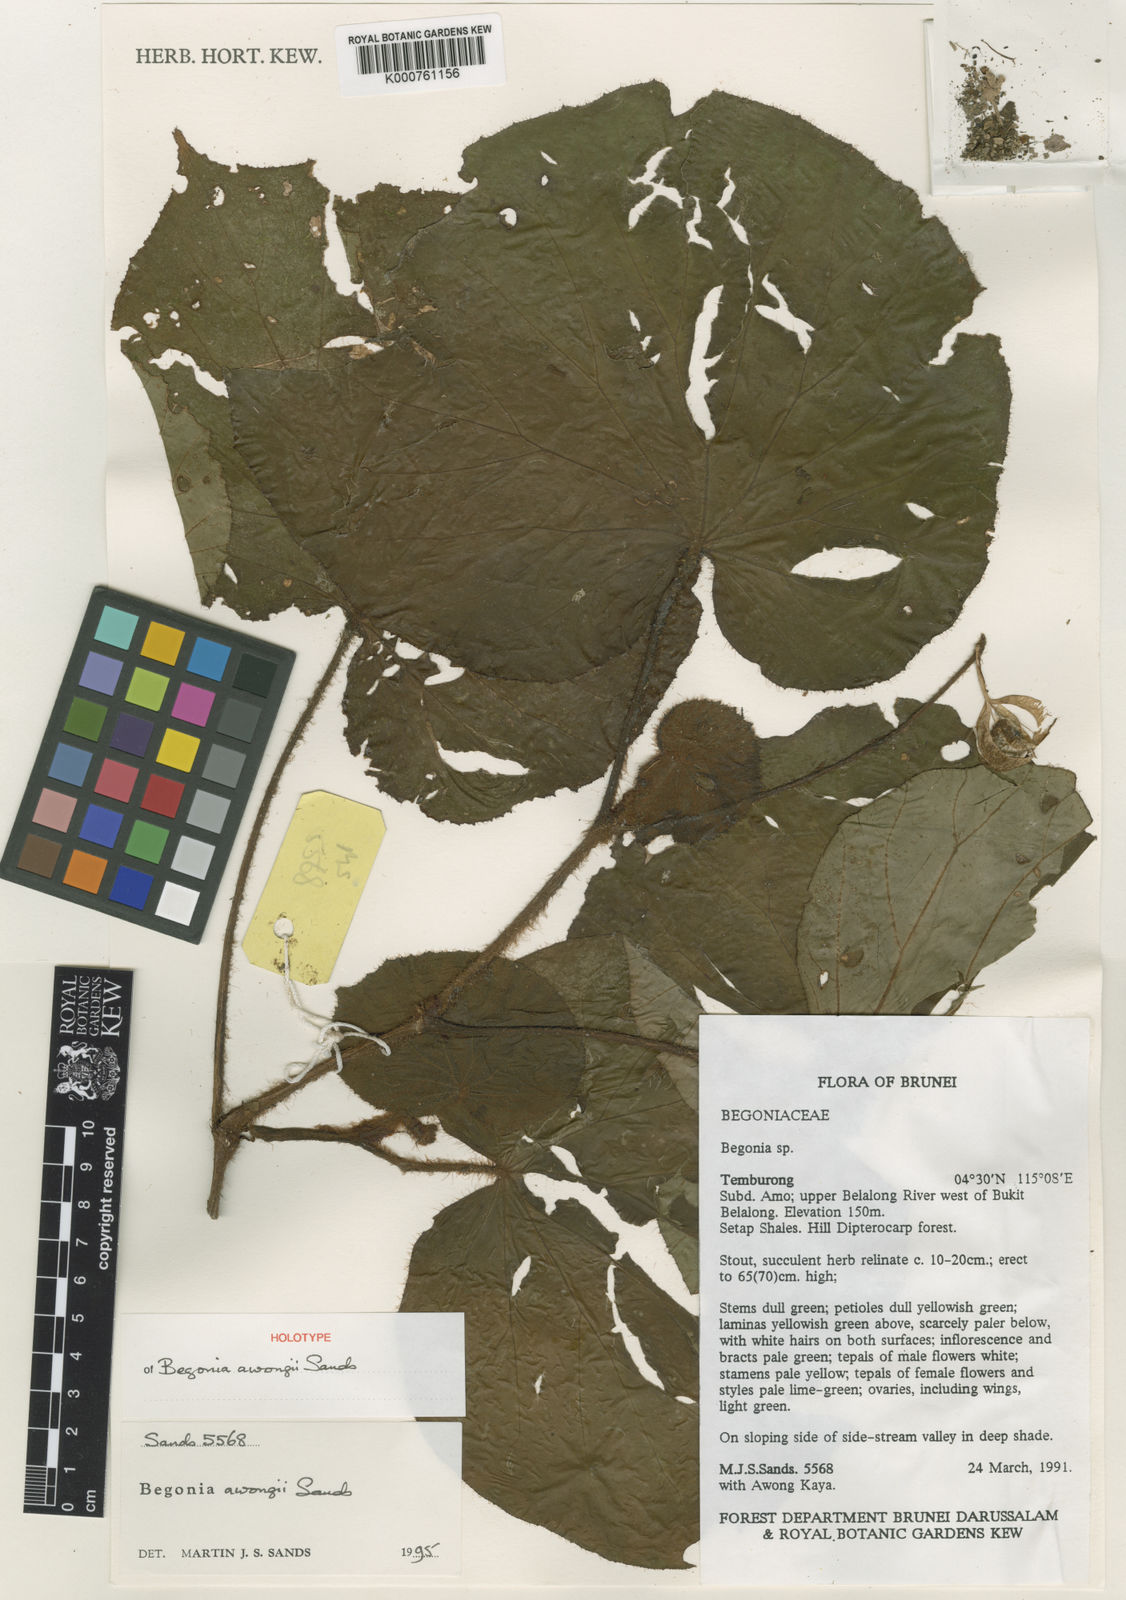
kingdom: Plantae
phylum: Tracheophyta
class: Magnoliopsida
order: Cucurbitales
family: Begoniaceae
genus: Begonia
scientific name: Begonia awongii
